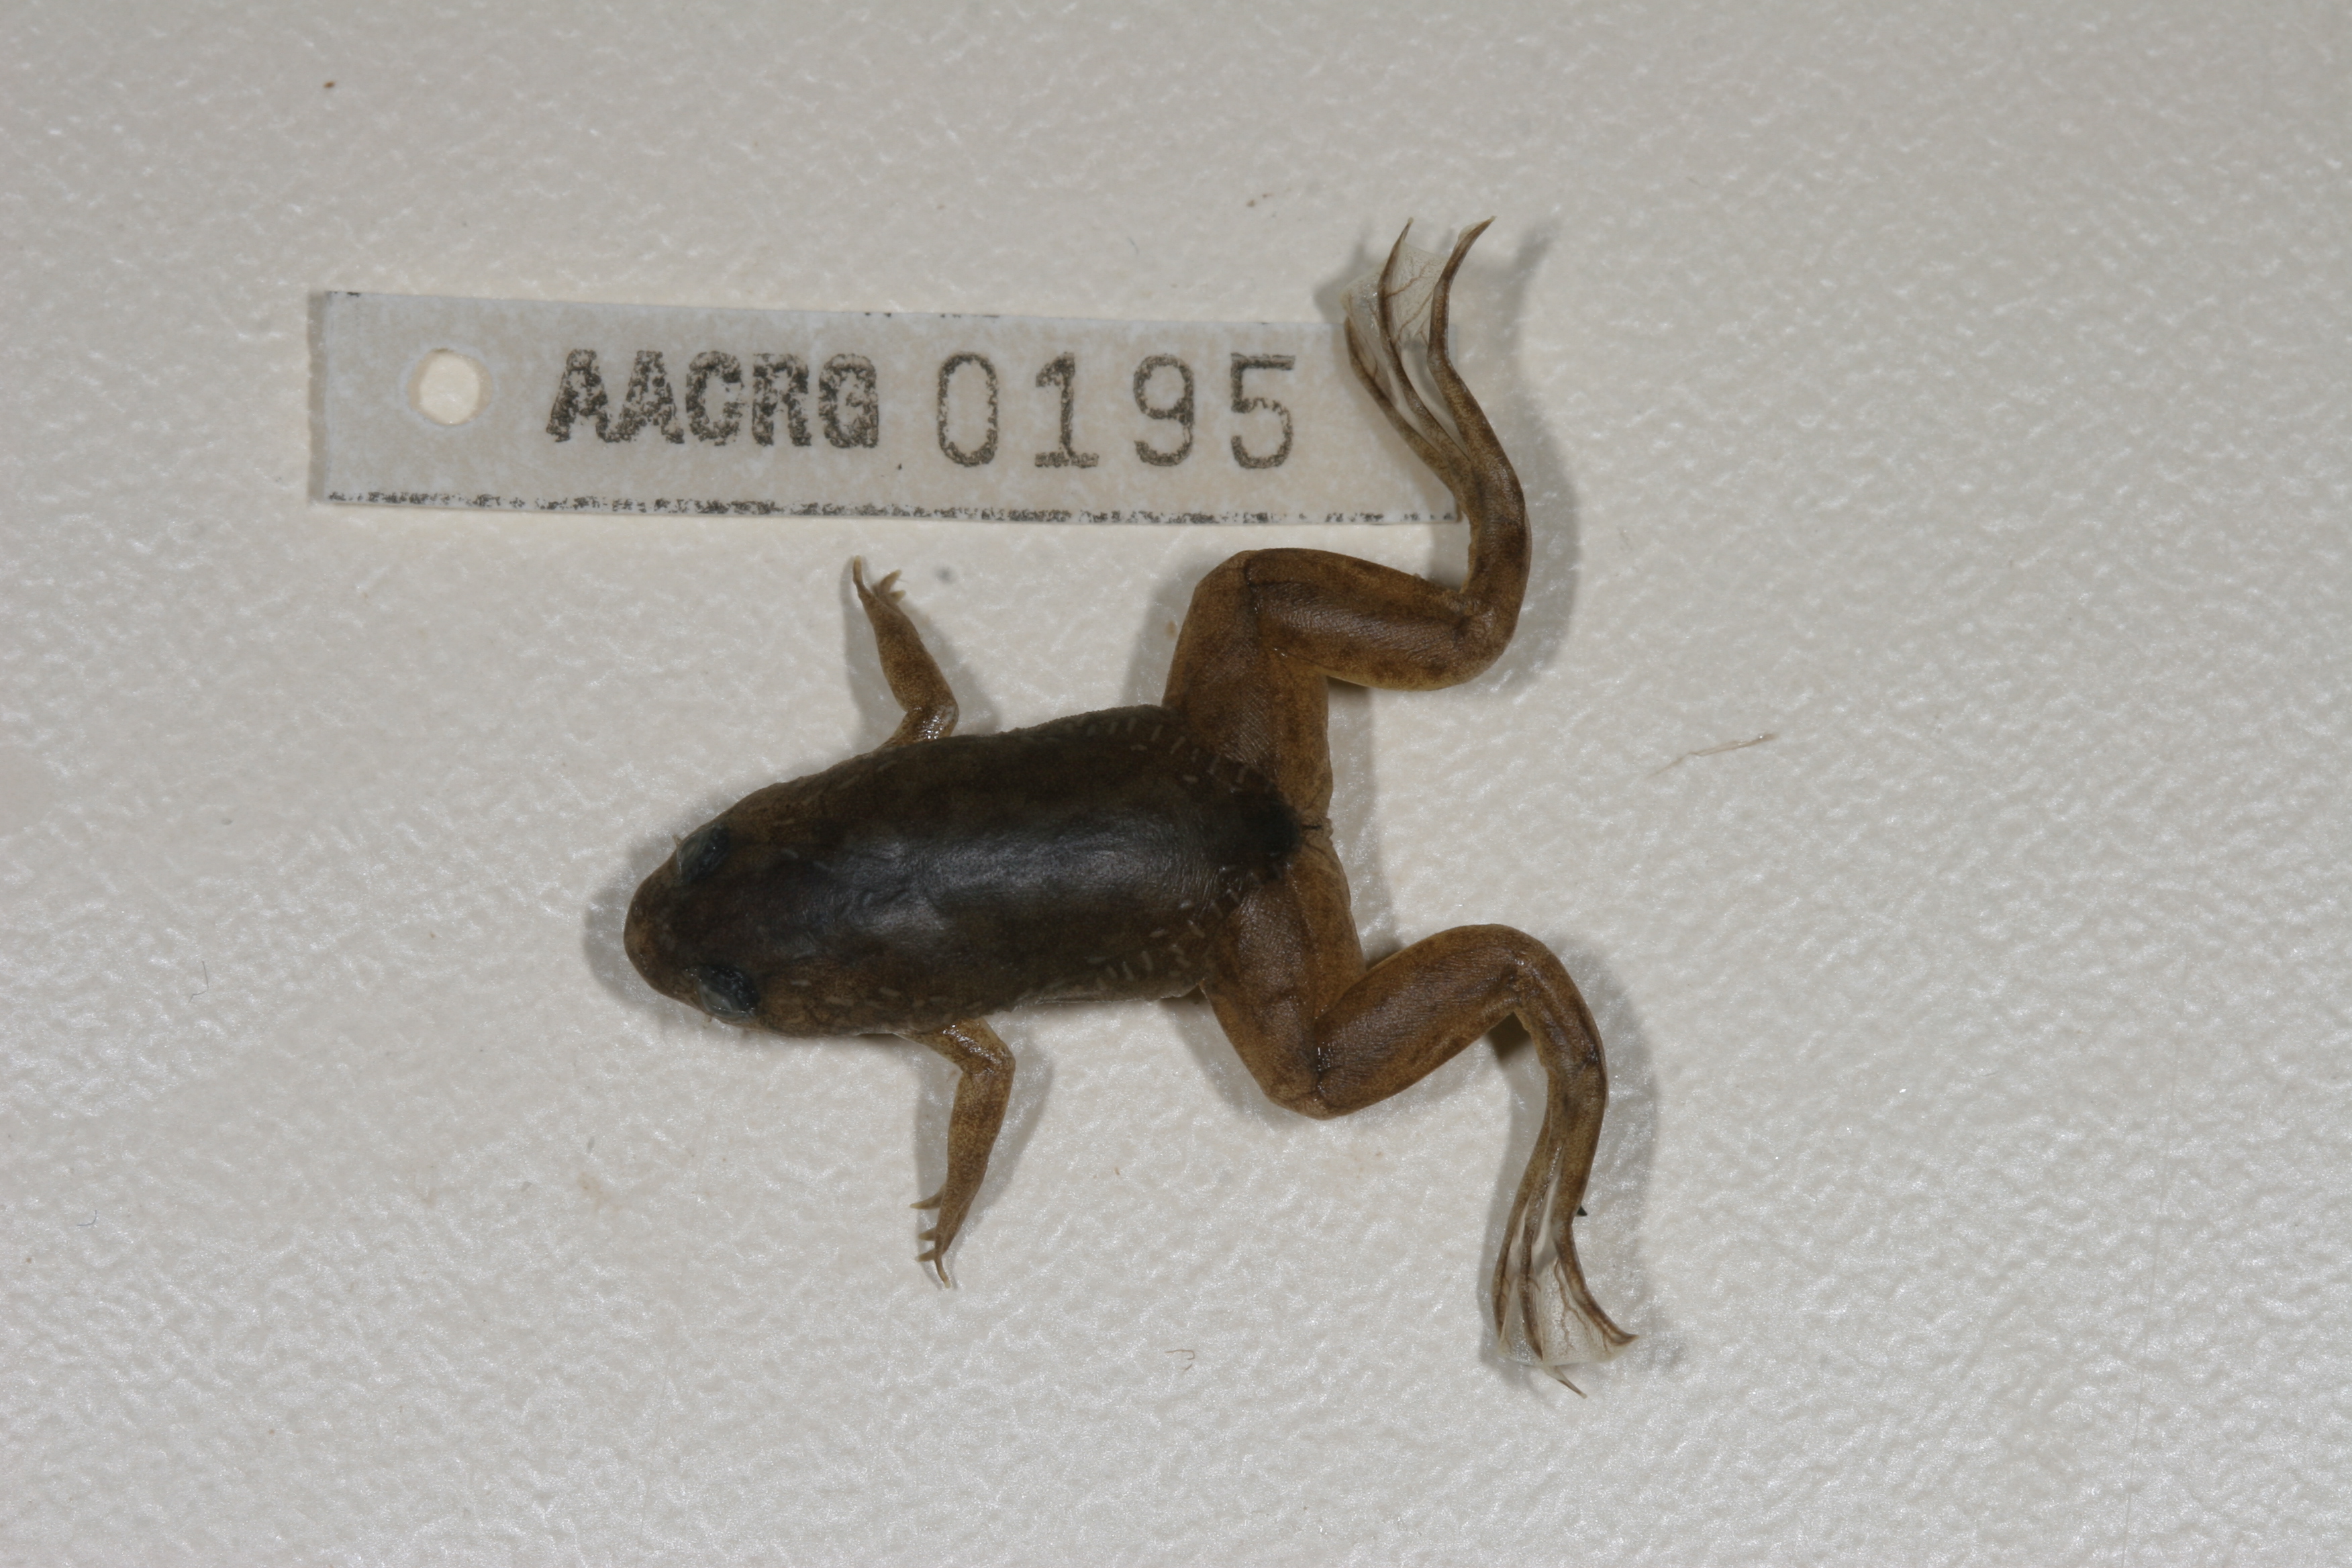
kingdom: Animalia
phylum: Chordata
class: Amphibia
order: Anura
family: Pipidae
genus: Xenopus
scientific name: Xenopus laevis
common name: African clawed frog
